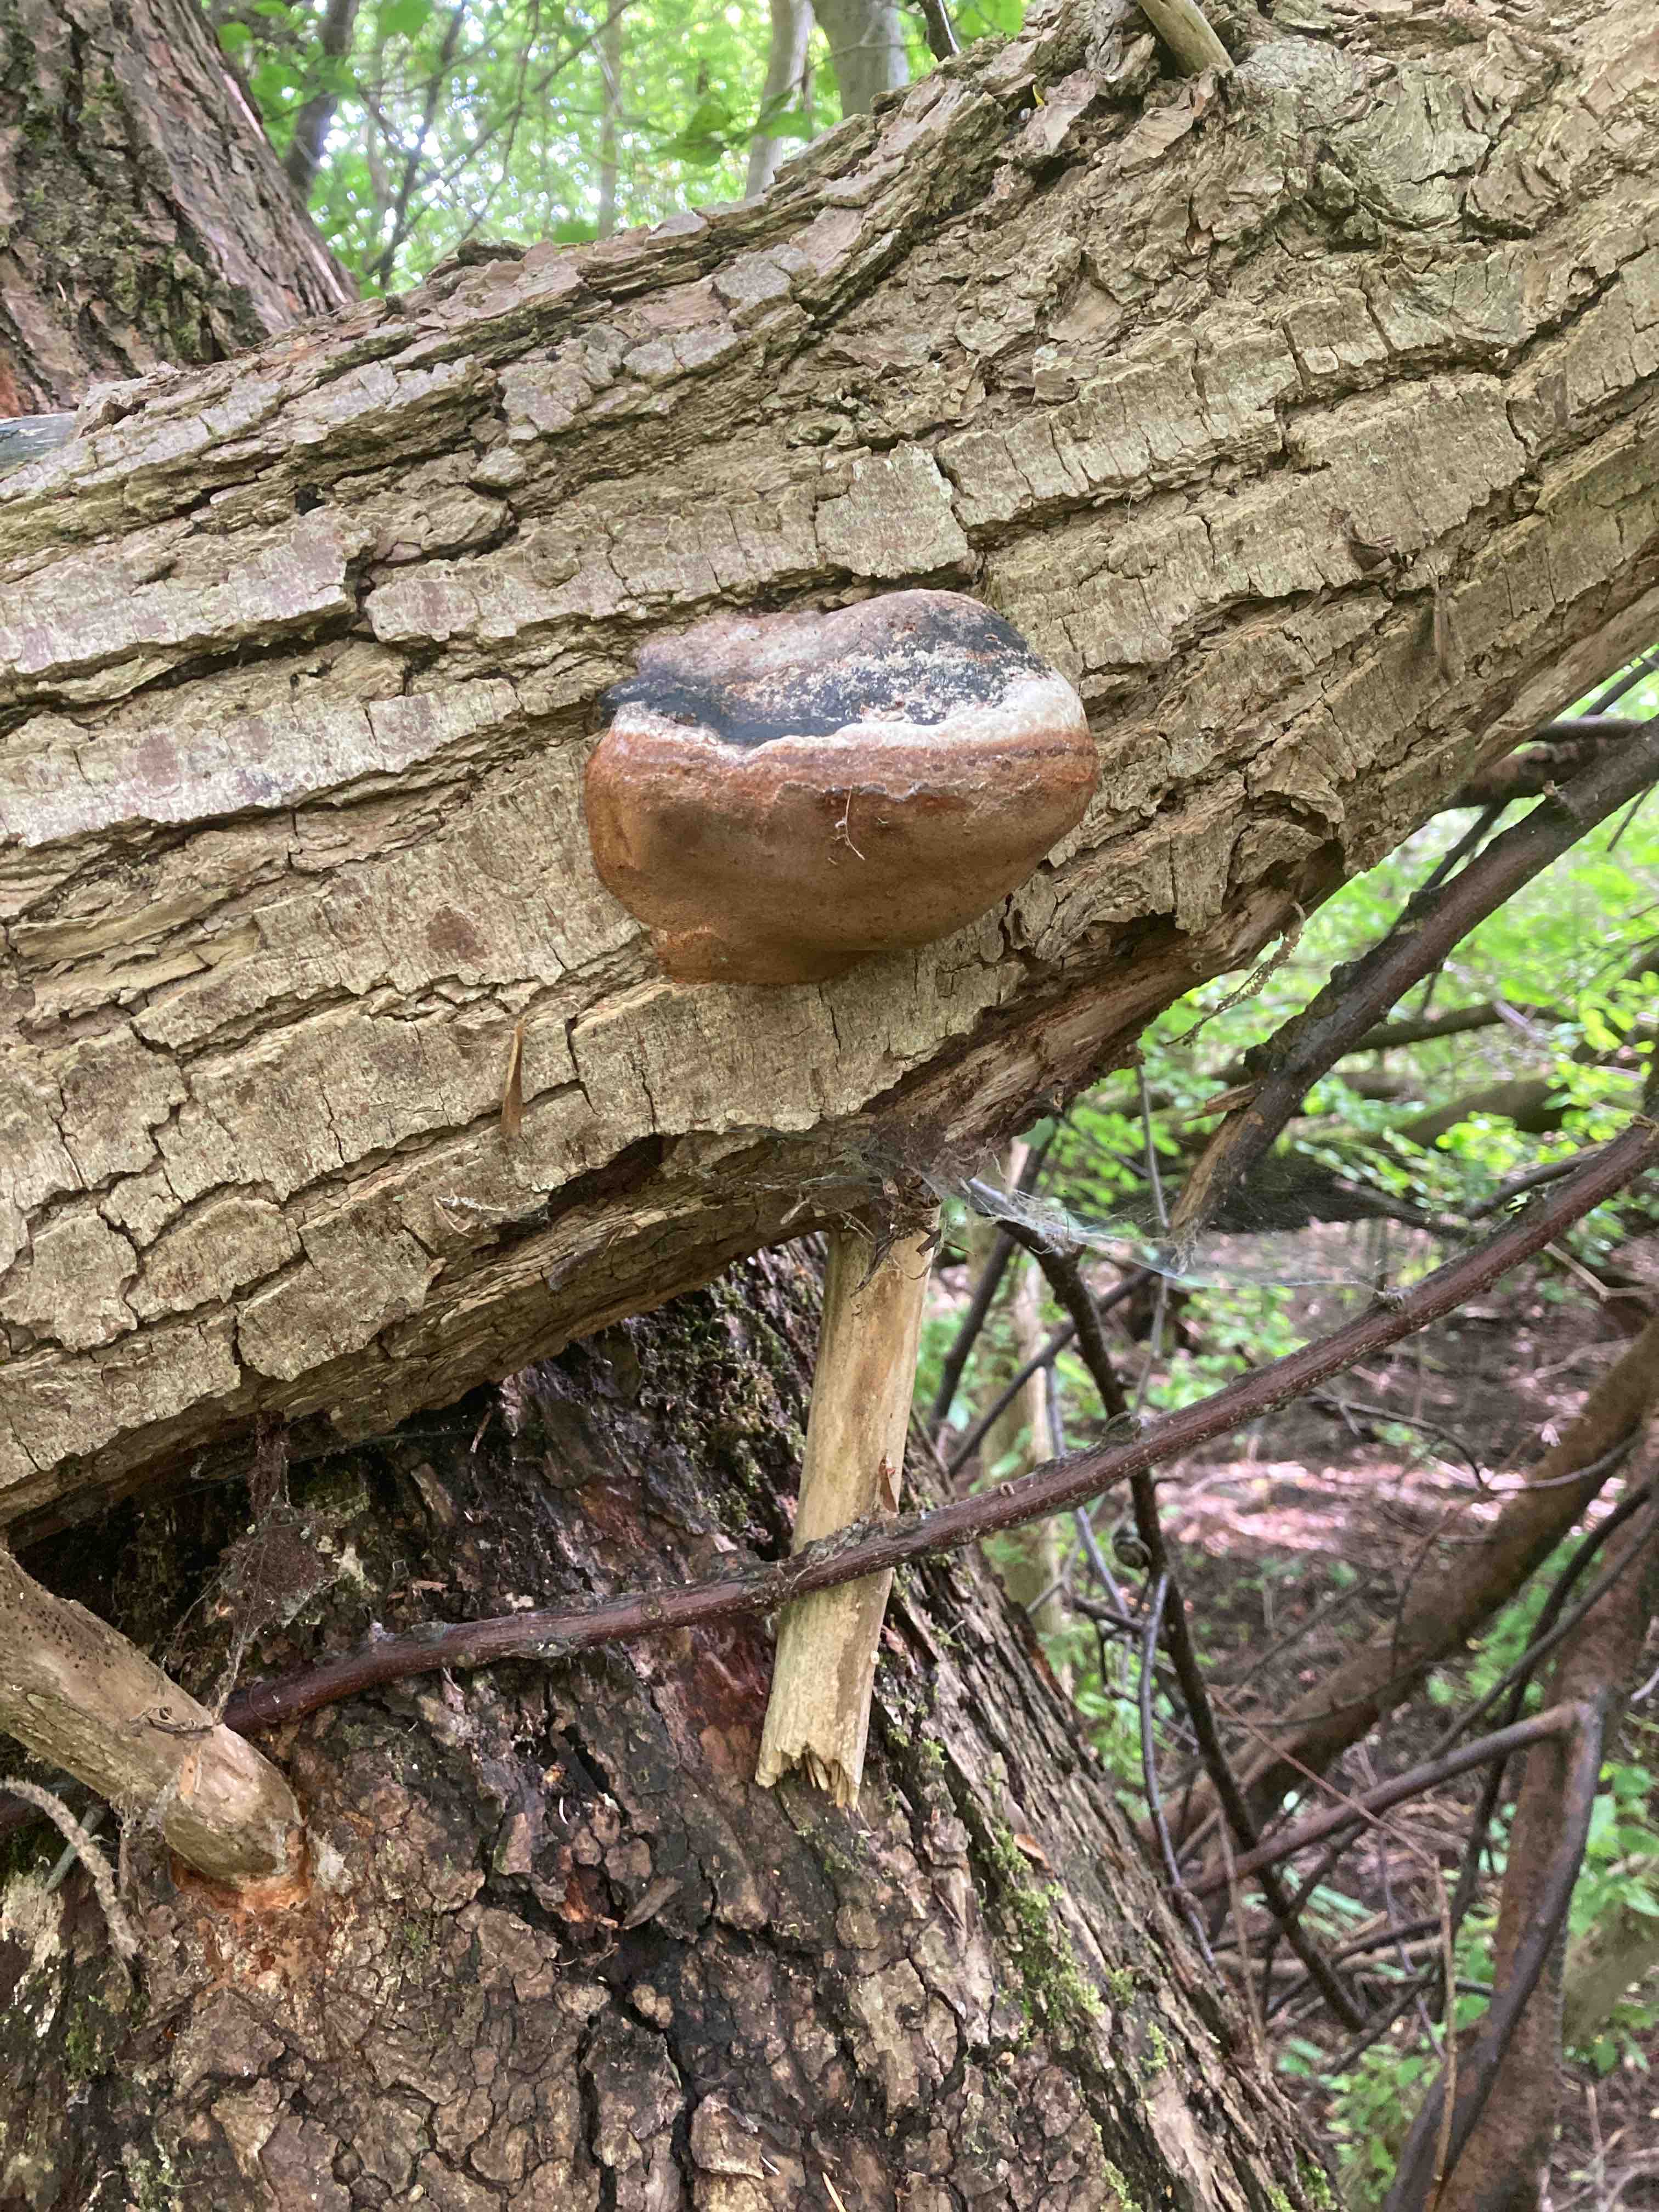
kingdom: Fungi
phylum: Basidiomycota
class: Agaricomycetes
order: Hymenochaetales
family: Hymenochaetaceae
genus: Phellinus
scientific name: Phellinus igniarius
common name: almindelig ildporesvamp
